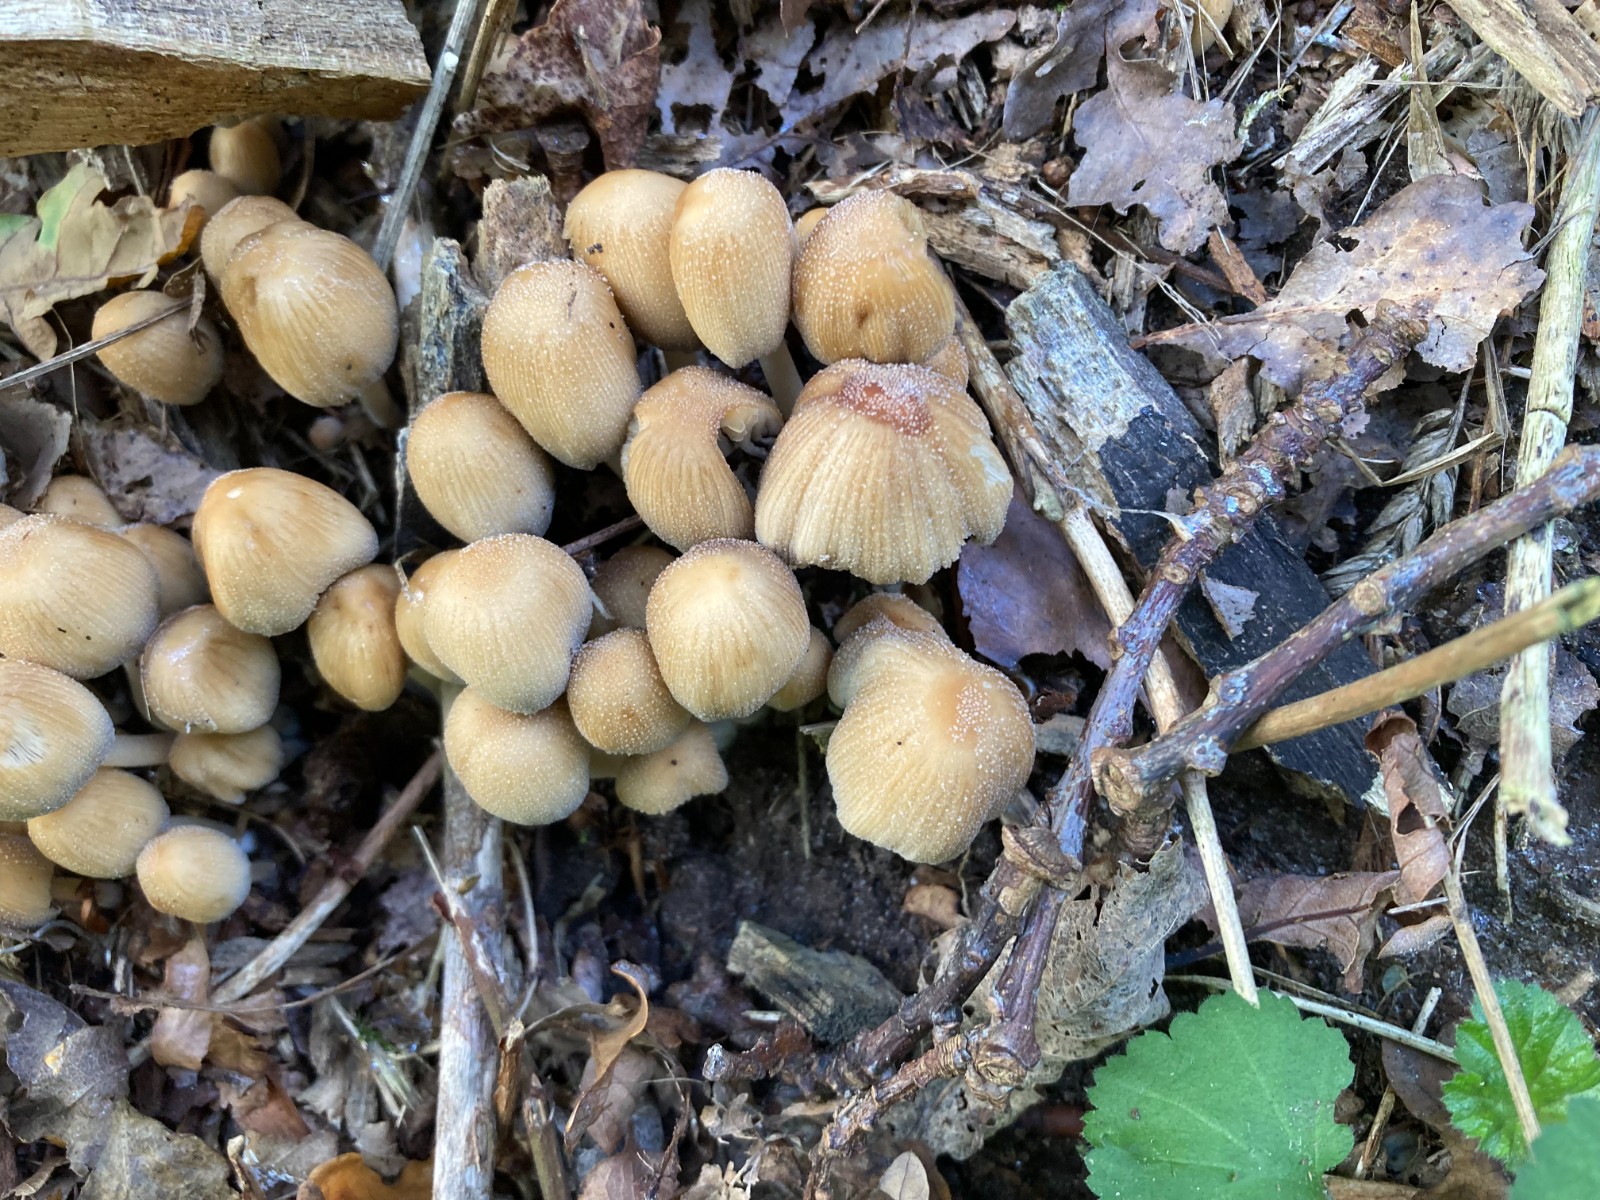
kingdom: Fungi
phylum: Basidiomycota
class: Agaricomycetes
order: Agaricales
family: Psathyrellaceae
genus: Coprinellus
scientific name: Coprinellus micaceus
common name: glimmer-blækhat
